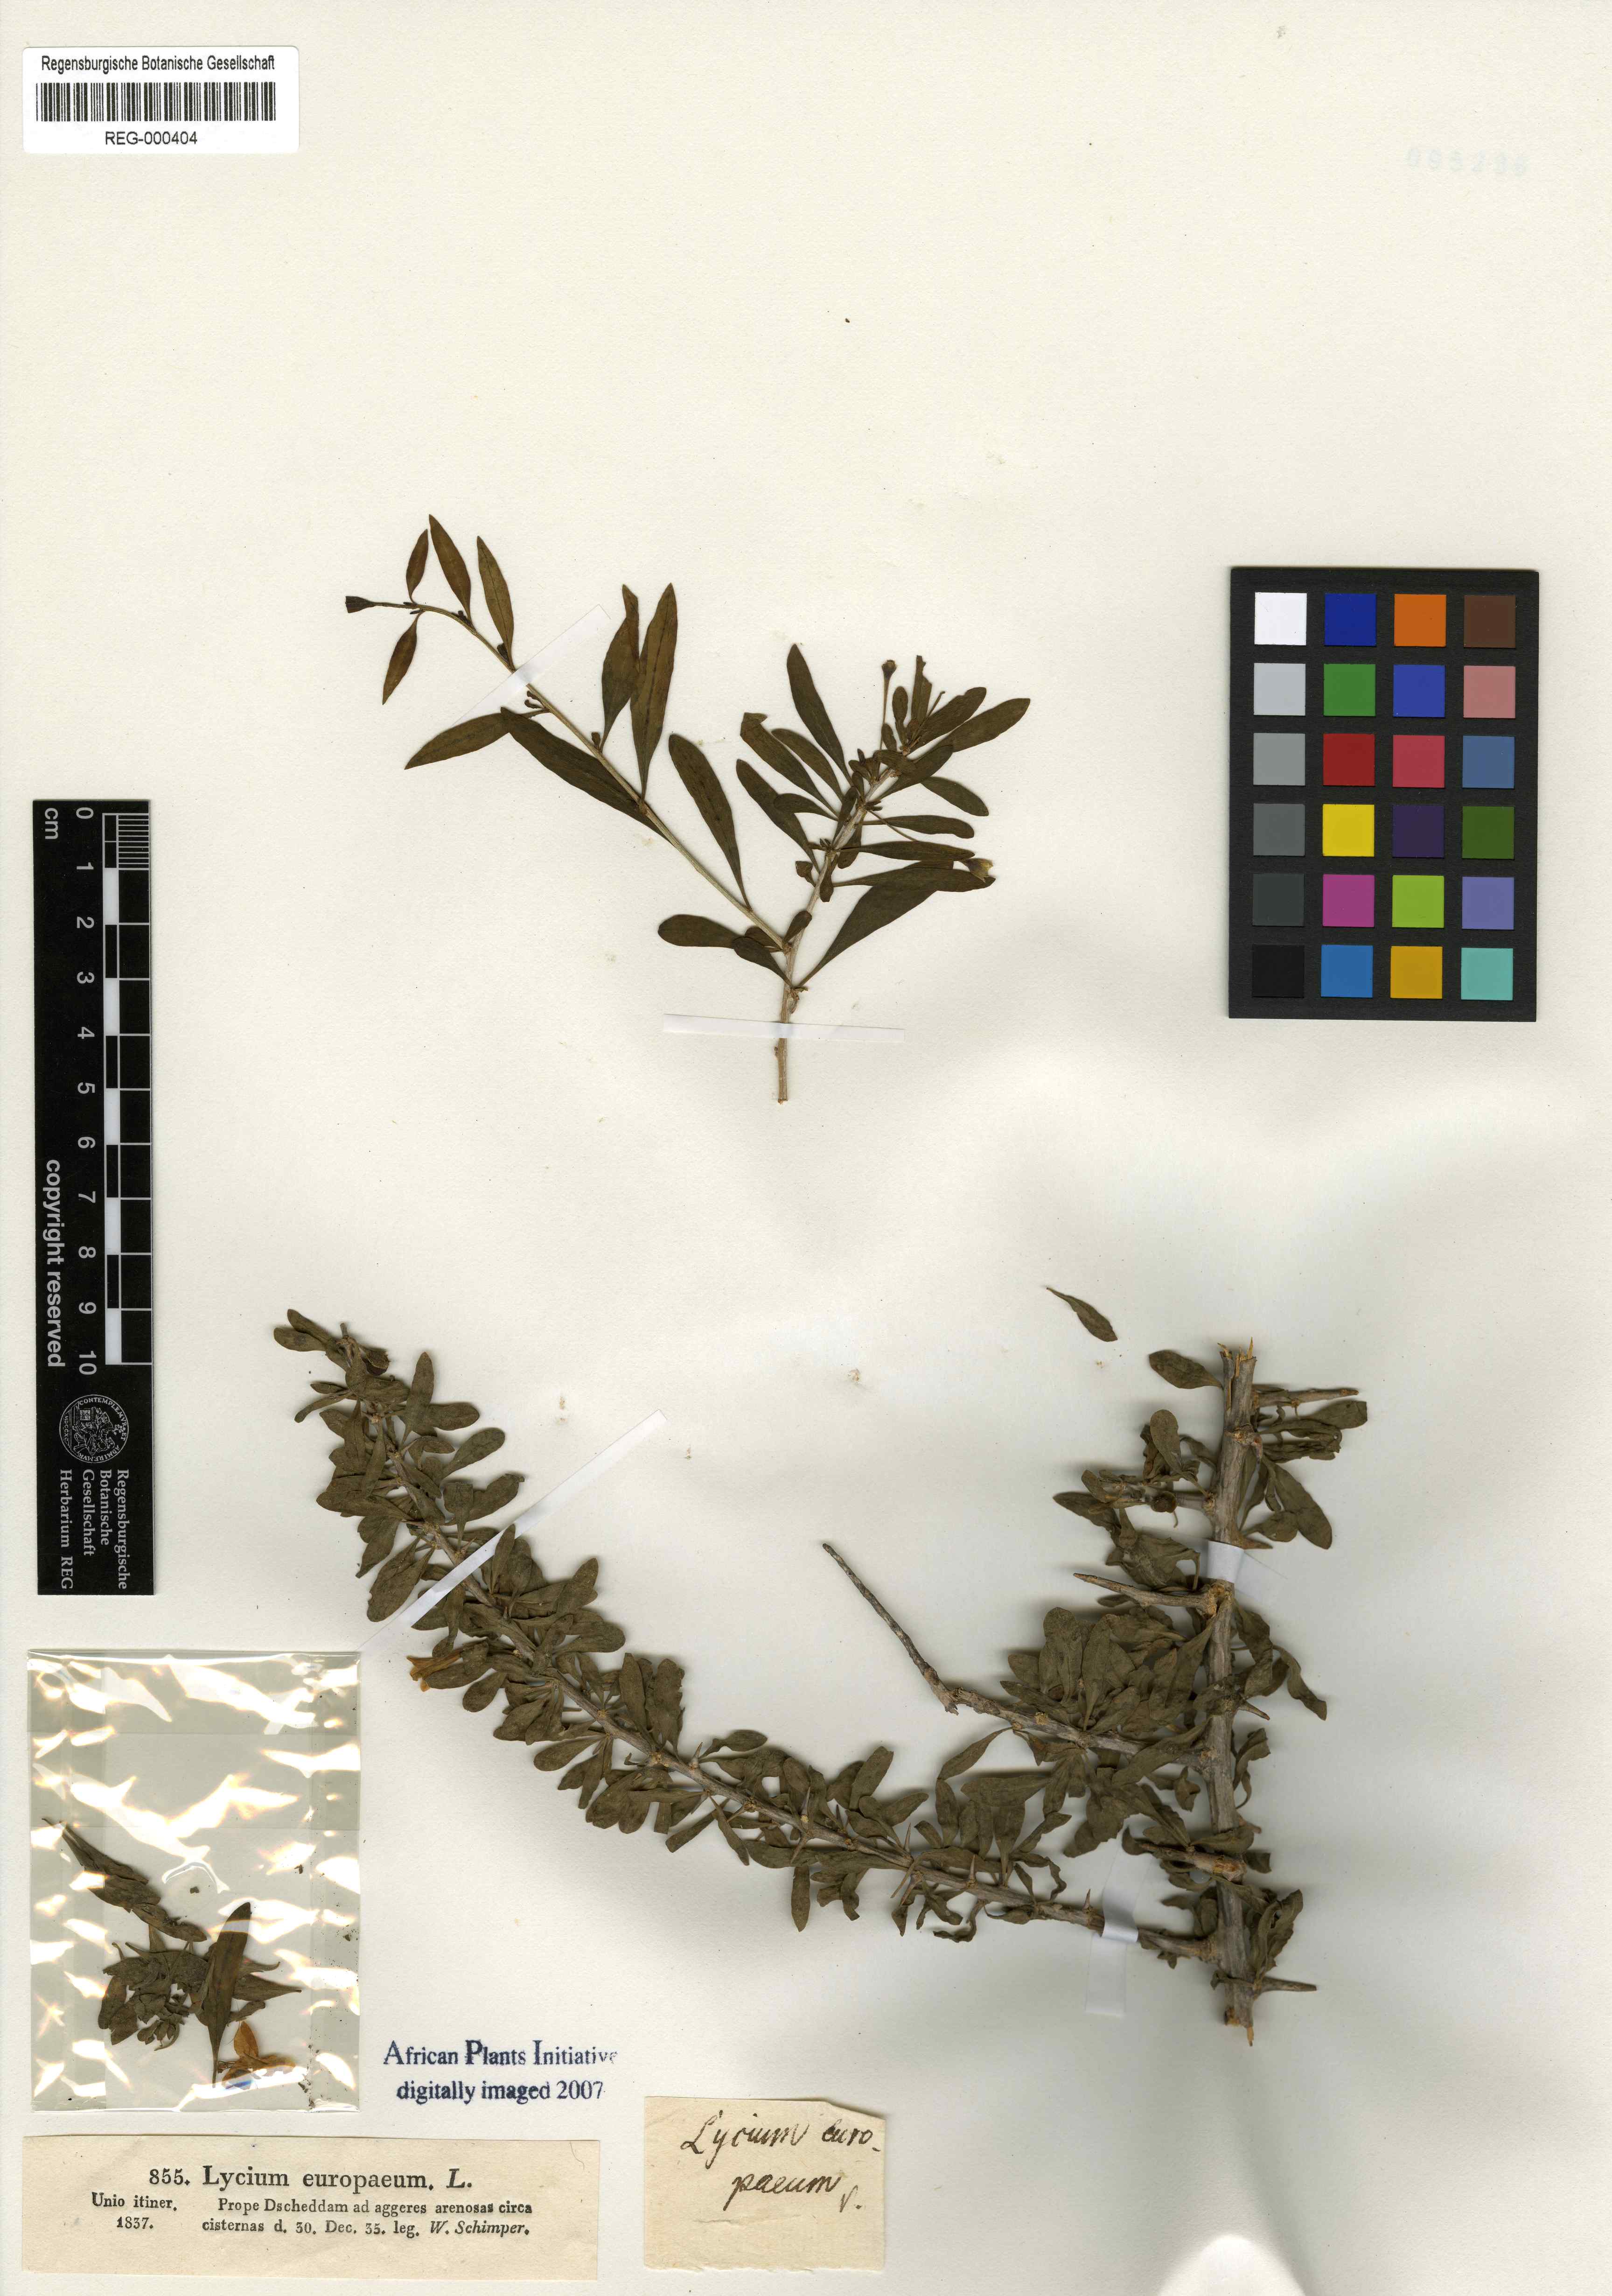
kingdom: Plantae
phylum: Tracheophyta
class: Magnoliopsida
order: Solanales
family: Solanaceae
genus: Lycium
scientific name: Lycium europaeum
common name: Boxthorn
